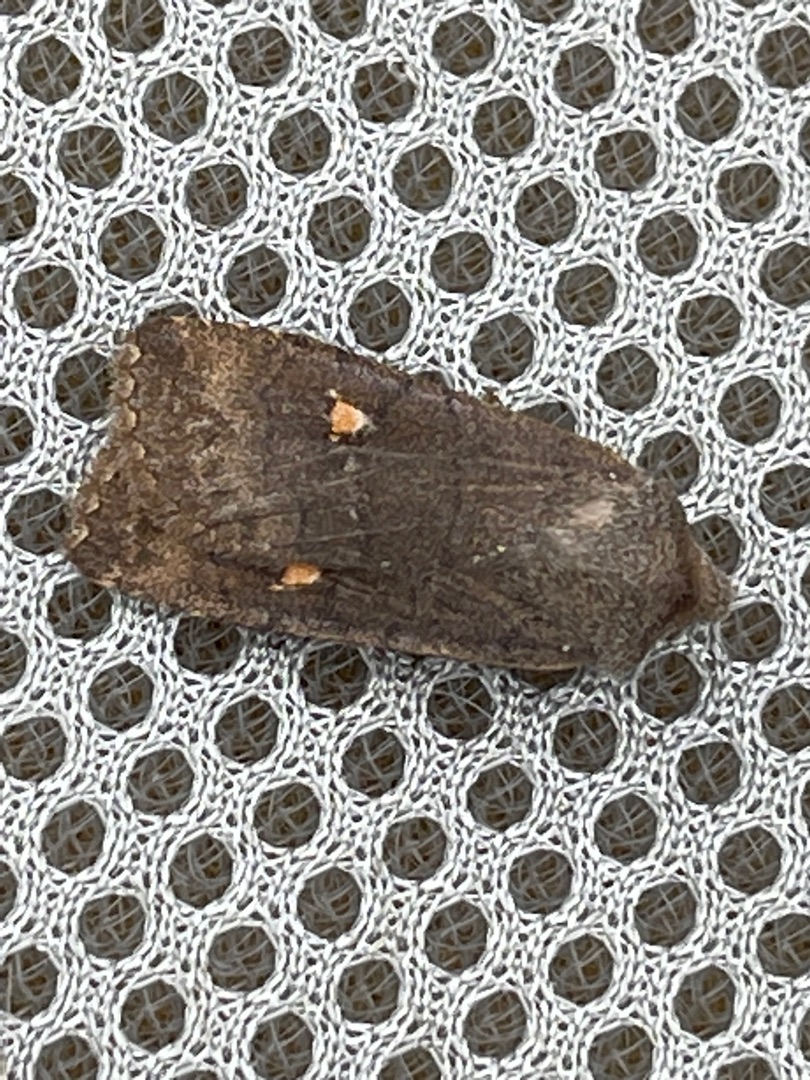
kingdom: Animalia
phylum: Arthropoda
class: Insecta
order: Lepidoptera
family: Noctuidae
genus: Eupsilia
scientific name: Eupsilia transversa
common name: Satellitugle
